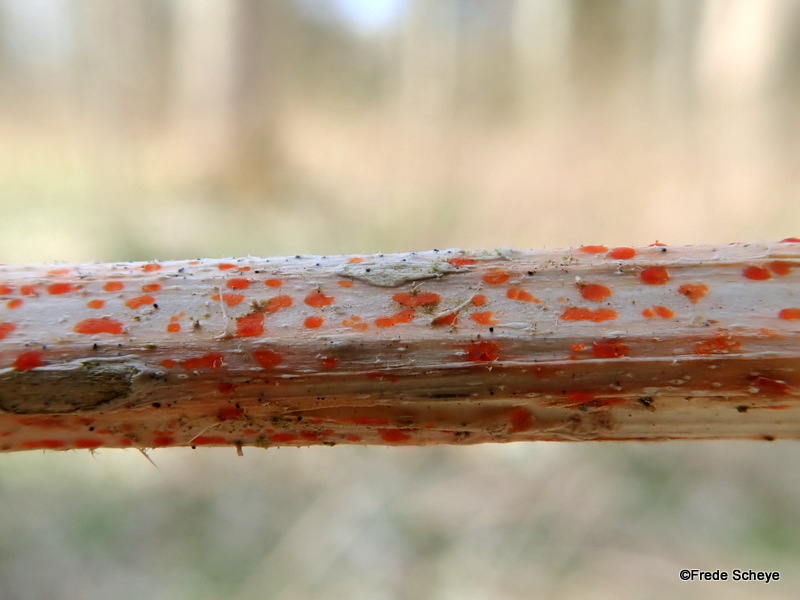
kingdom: Fungi
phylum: Ascomycota
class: Leotiomycetes
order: Helotiales
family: Calloriaceae
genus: Calloria
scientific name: Calloria urticae
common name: nælde-orangeskive
